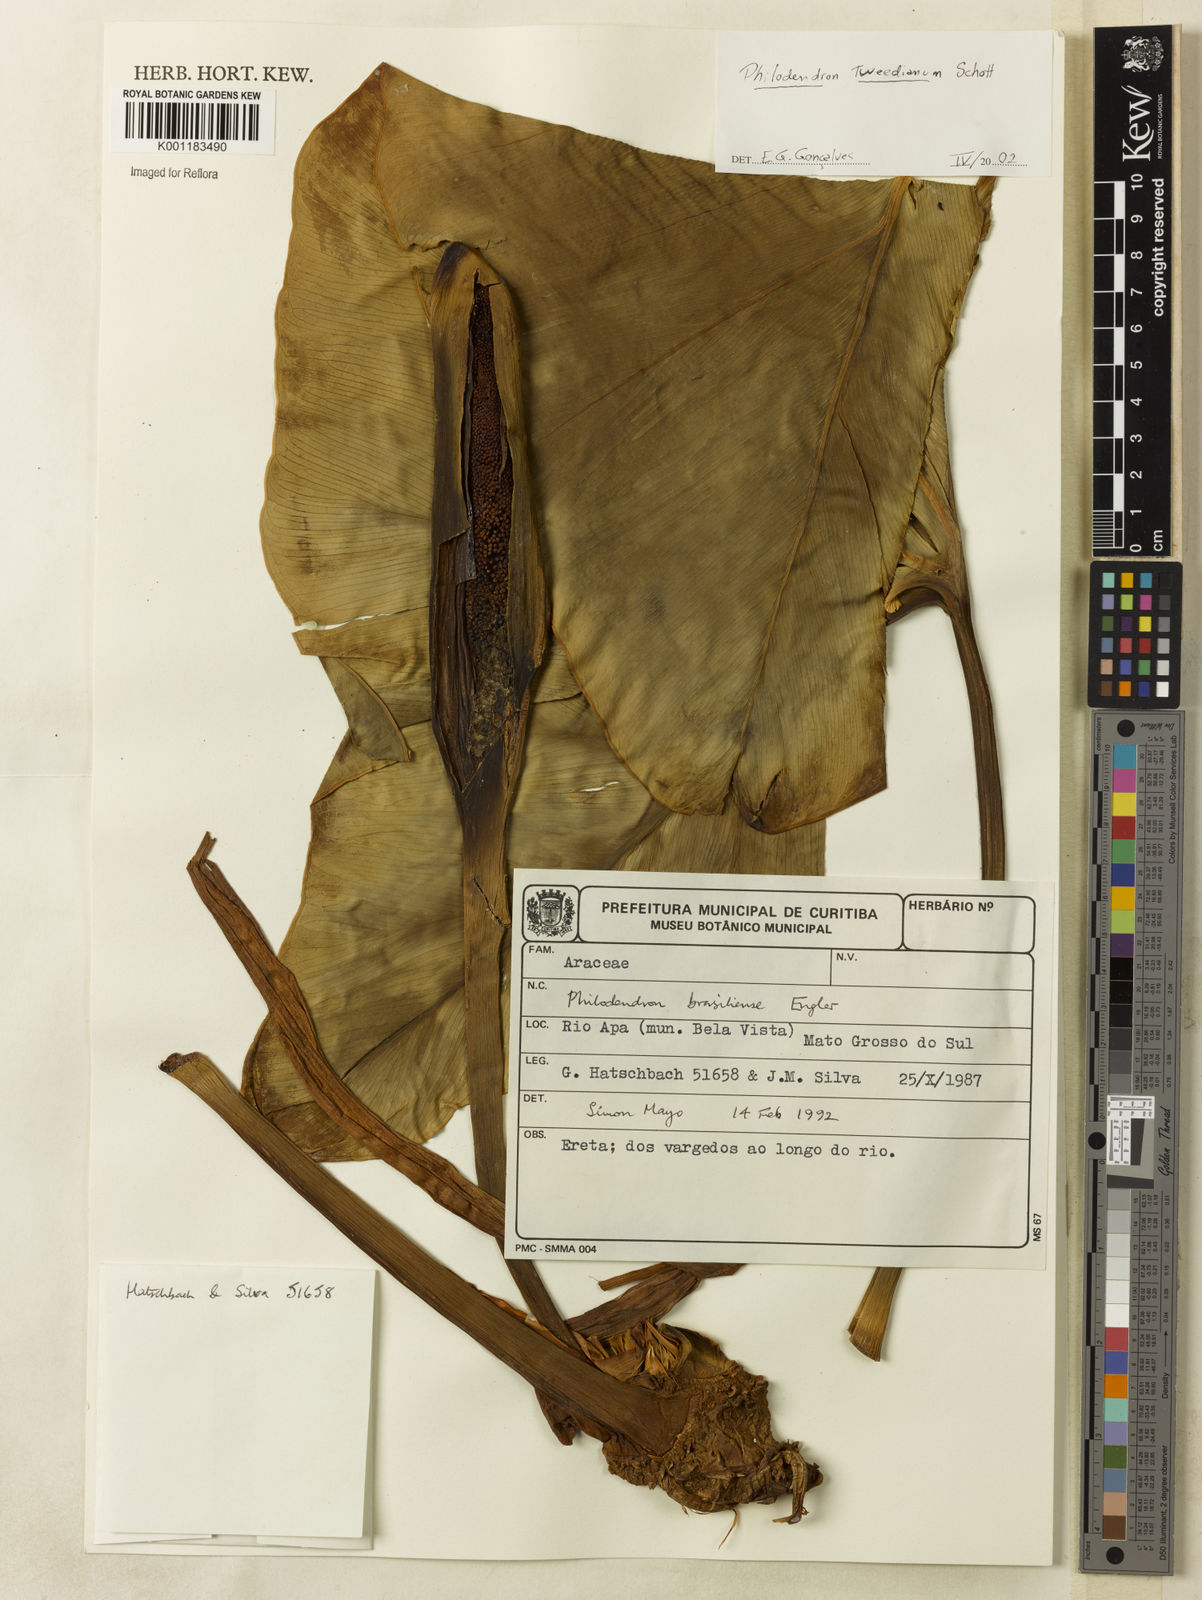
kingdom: Plantae
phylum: Tracheophyta
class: Liliopsida
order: Alismatales
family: Araceae
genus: Thaumatophyllum
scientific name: Thaumatophyllum tweedieanum
